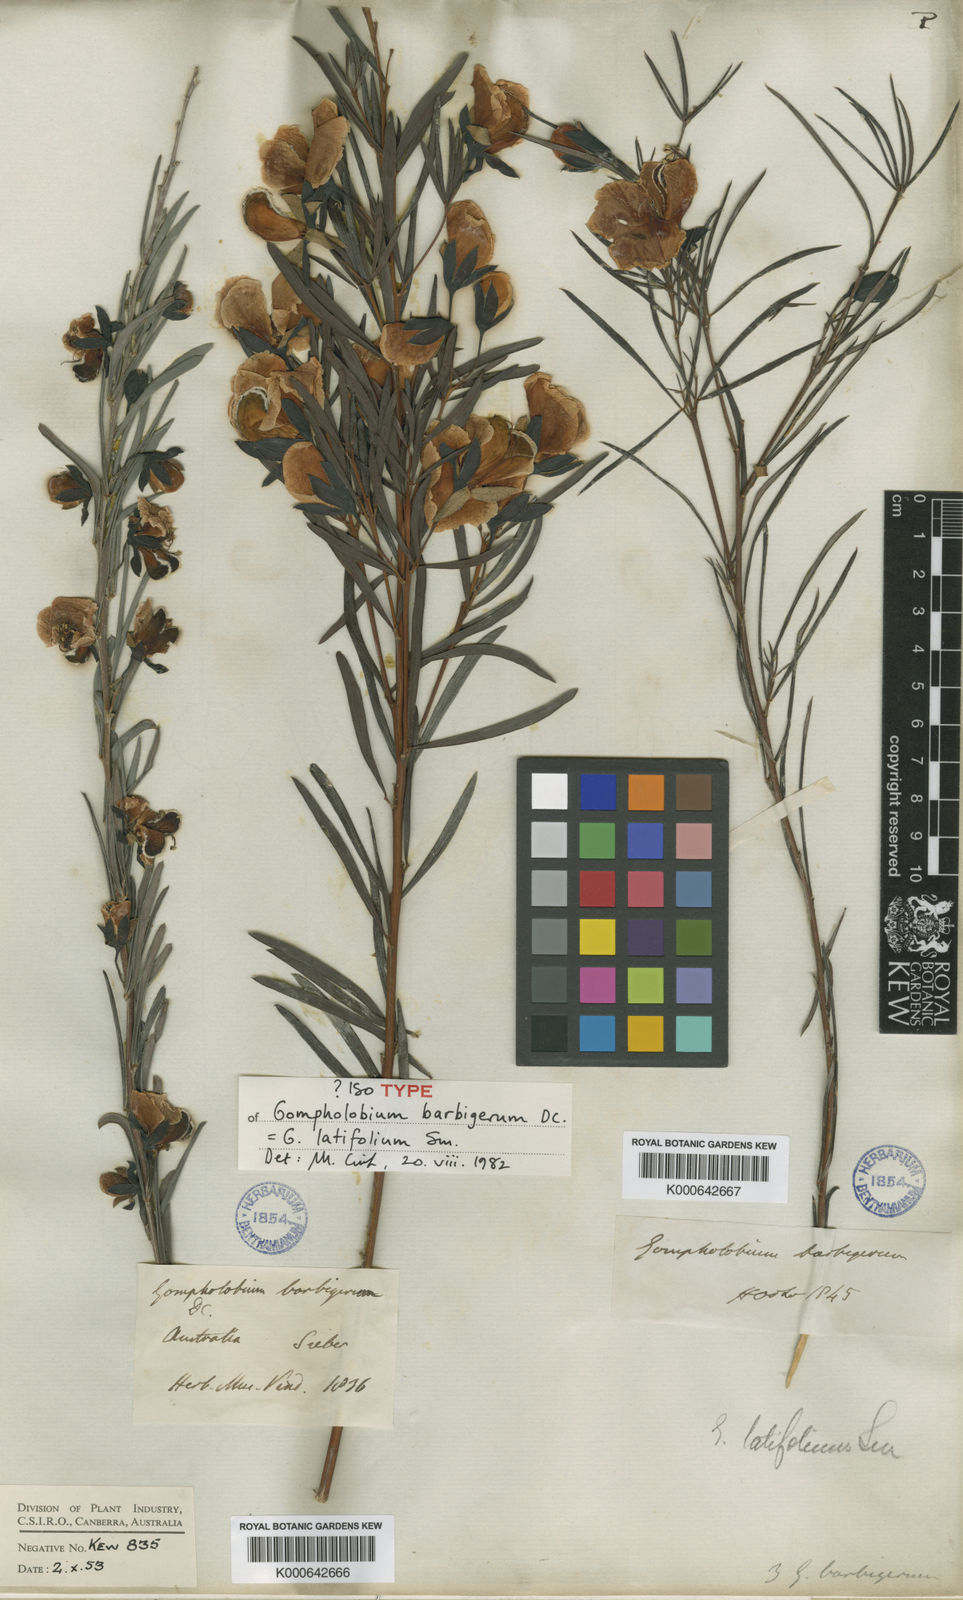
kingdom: Plantae
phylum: Tracheophyta
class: Magnoliopsida
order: Fabales
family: Fabaceae
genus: Gompholobium
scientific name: Gompholobium latifolium
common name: Broadleaf wedge-pea
